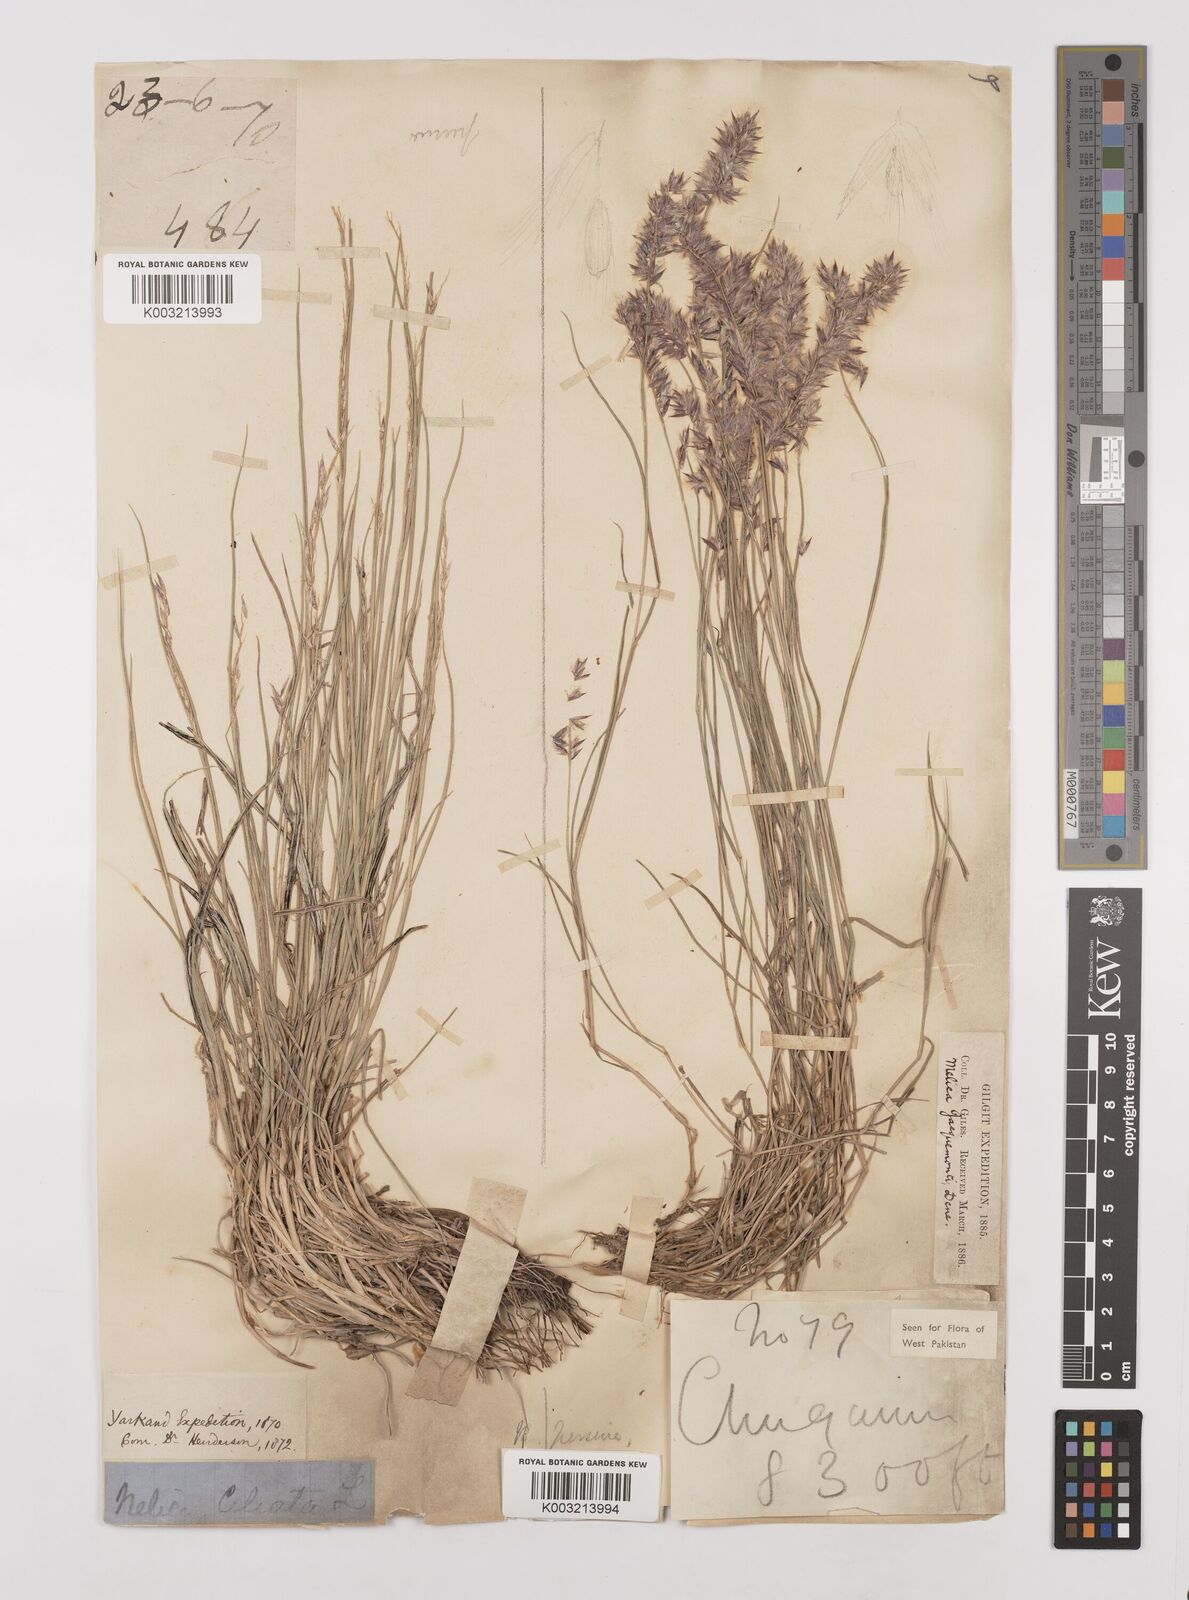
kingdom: Plantae
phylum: Tracheophyta
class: Liliopsida
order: Poales
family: Poaceae
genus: Melica
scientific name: Melica persica
